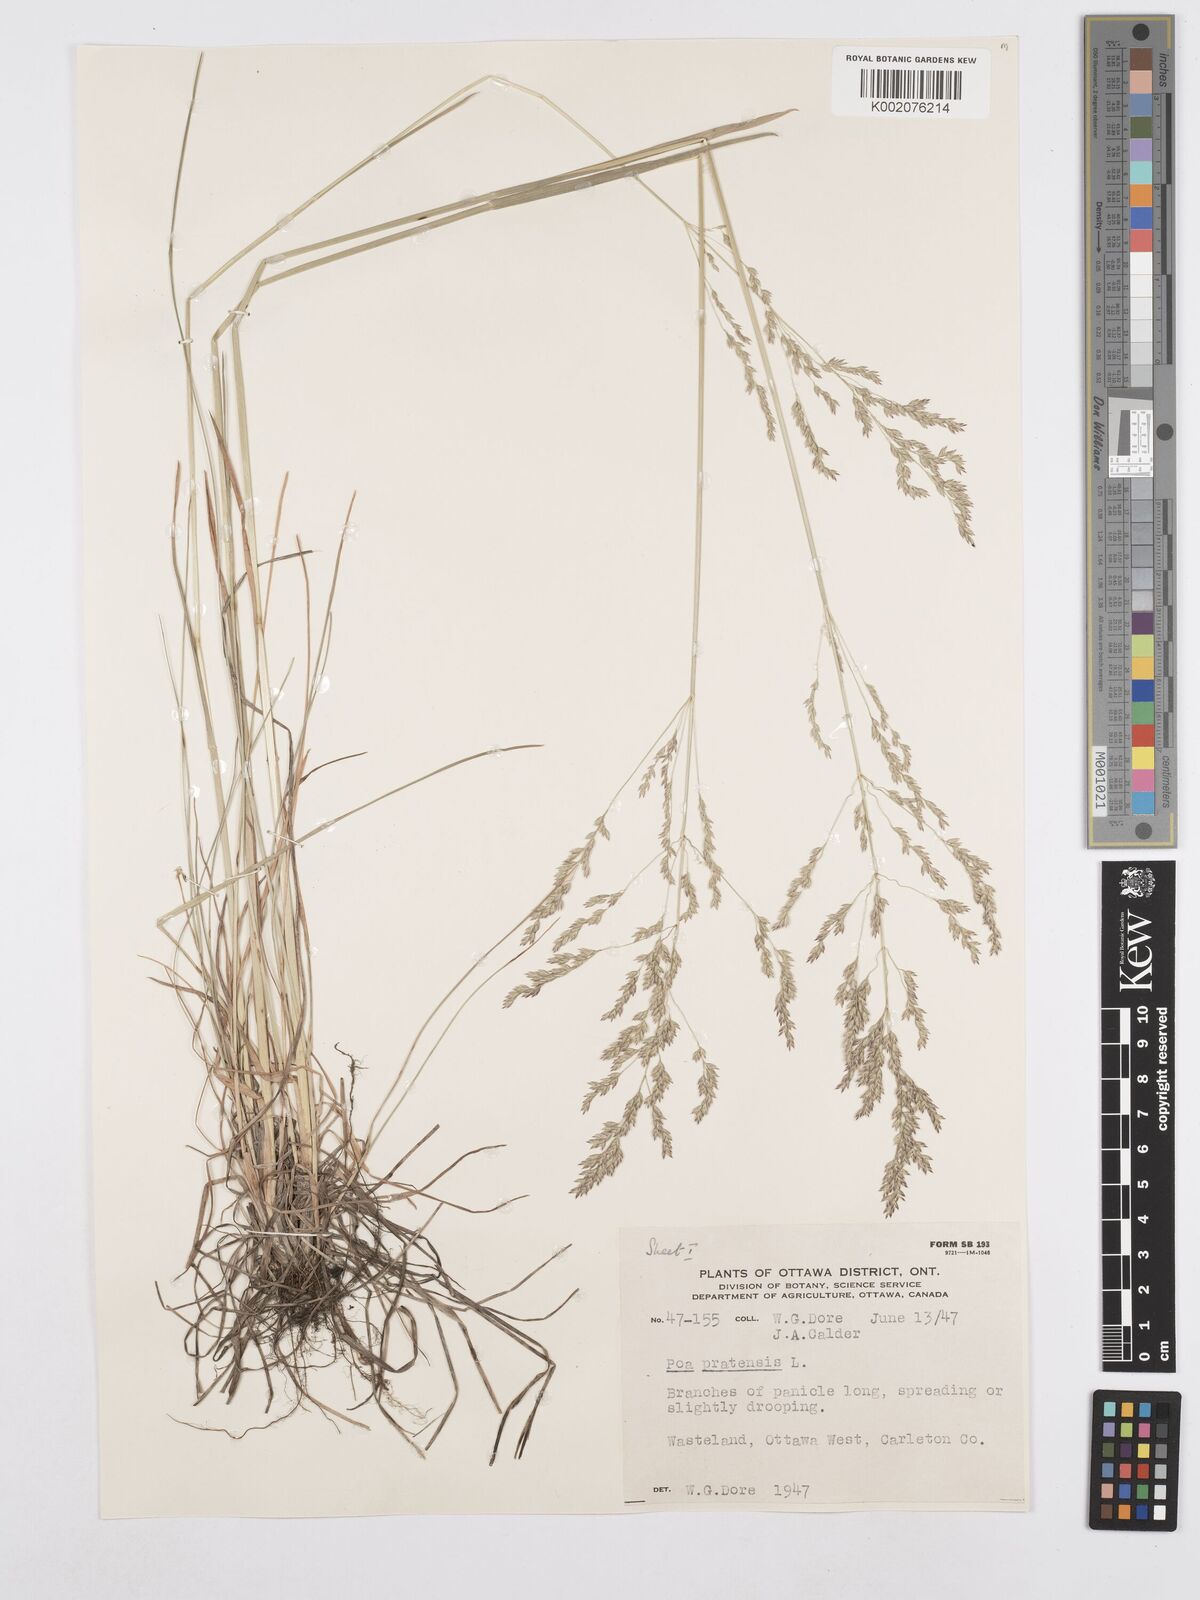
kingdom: Plantae
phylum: Tracheophyta
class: Liliopsida
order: Poales
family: Poaceae
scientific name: Poaceae
